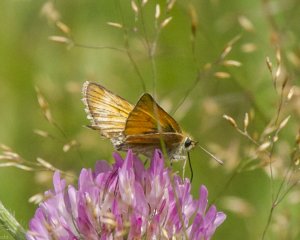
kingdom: Animalia
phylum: Arthropoda
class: Insecta
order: Lepidoptera
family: Hesperiidae
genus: Thymelicus
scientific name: Thymelicus lineola
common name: European Skipper
